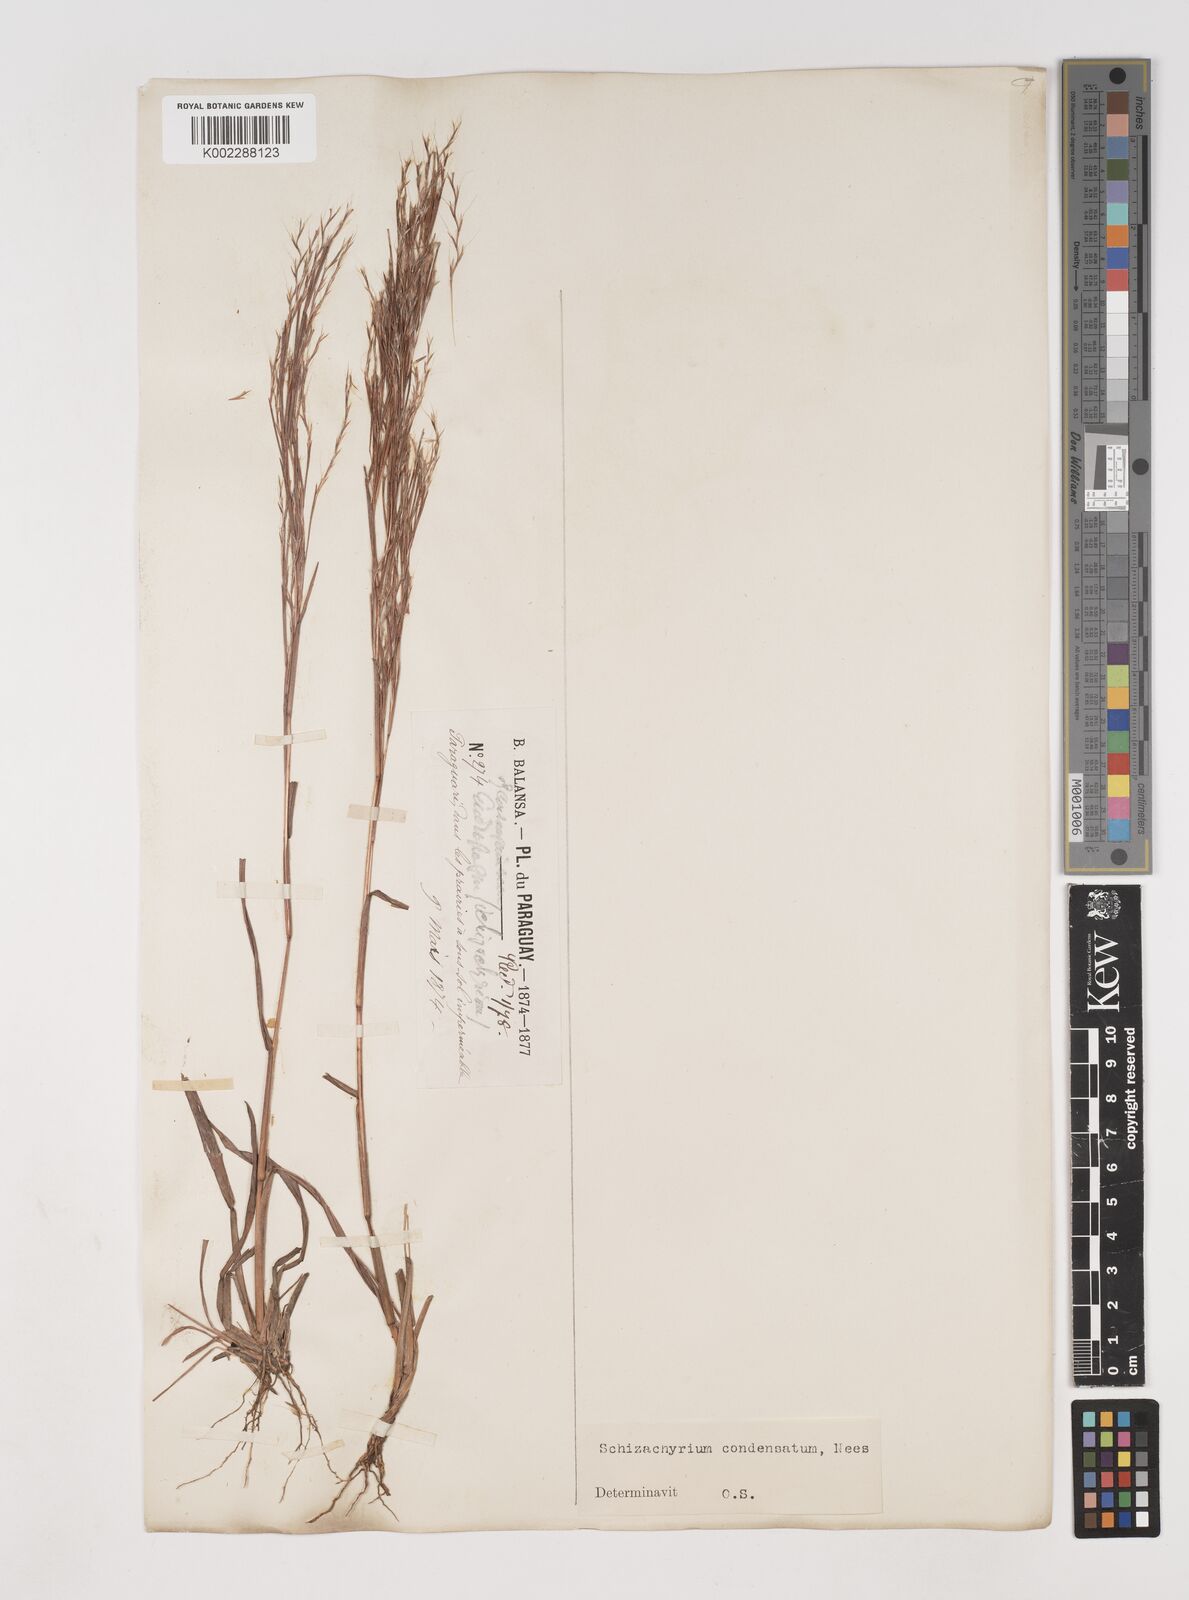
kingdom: Plantae
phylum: Tracheophyta
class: Liliopsida
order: Poales
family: Poaceae
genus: Schizachyrium
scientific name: Schizachyrium condensatum
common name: Bush beardgrass
